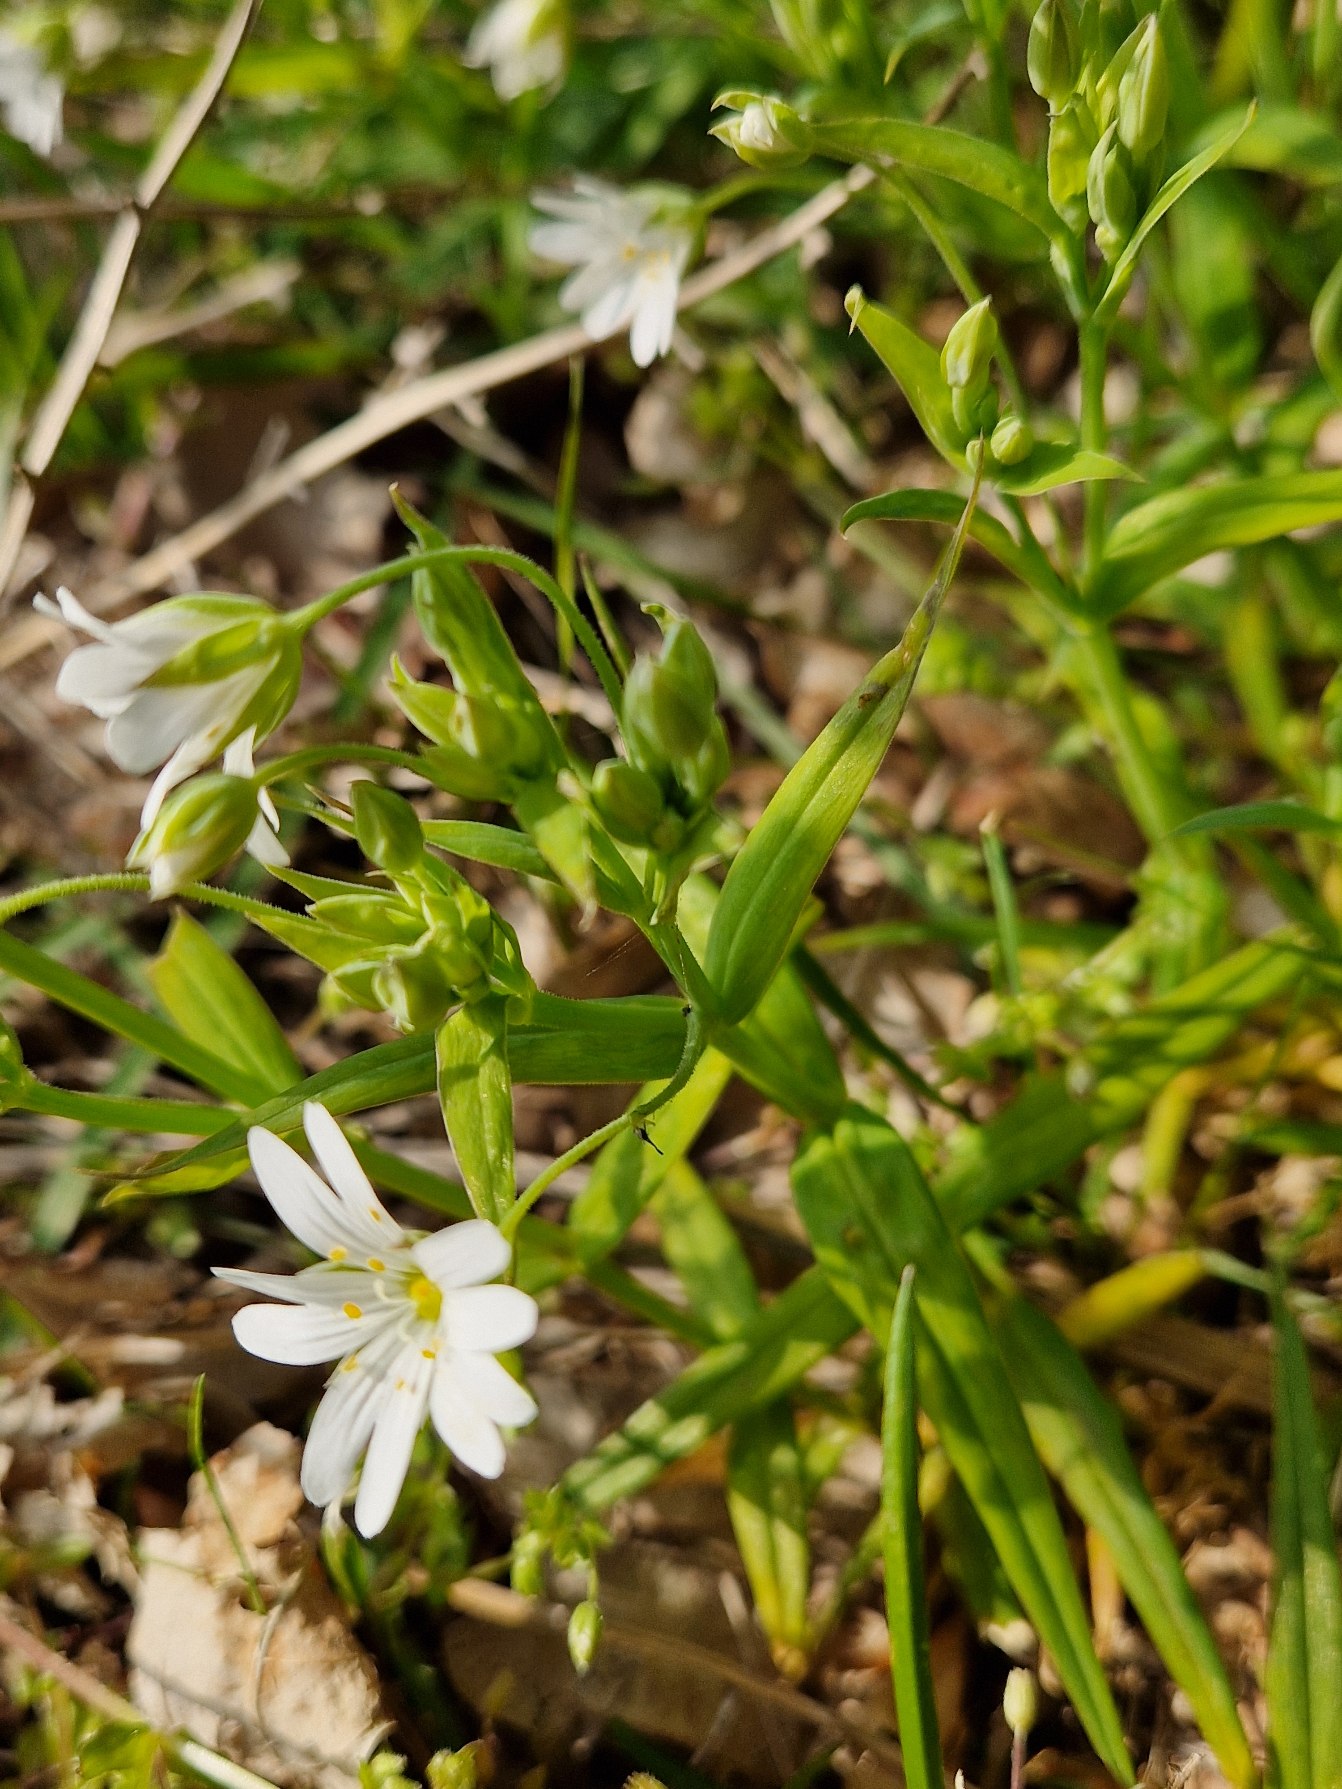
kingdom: Plantae
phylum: Tracheophyta
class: Magnoliopsida
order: Caryophyllales
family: Caryophyllaceae
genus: Rabelera
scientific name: Rabelera holostea
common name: Stor fladstjerne
